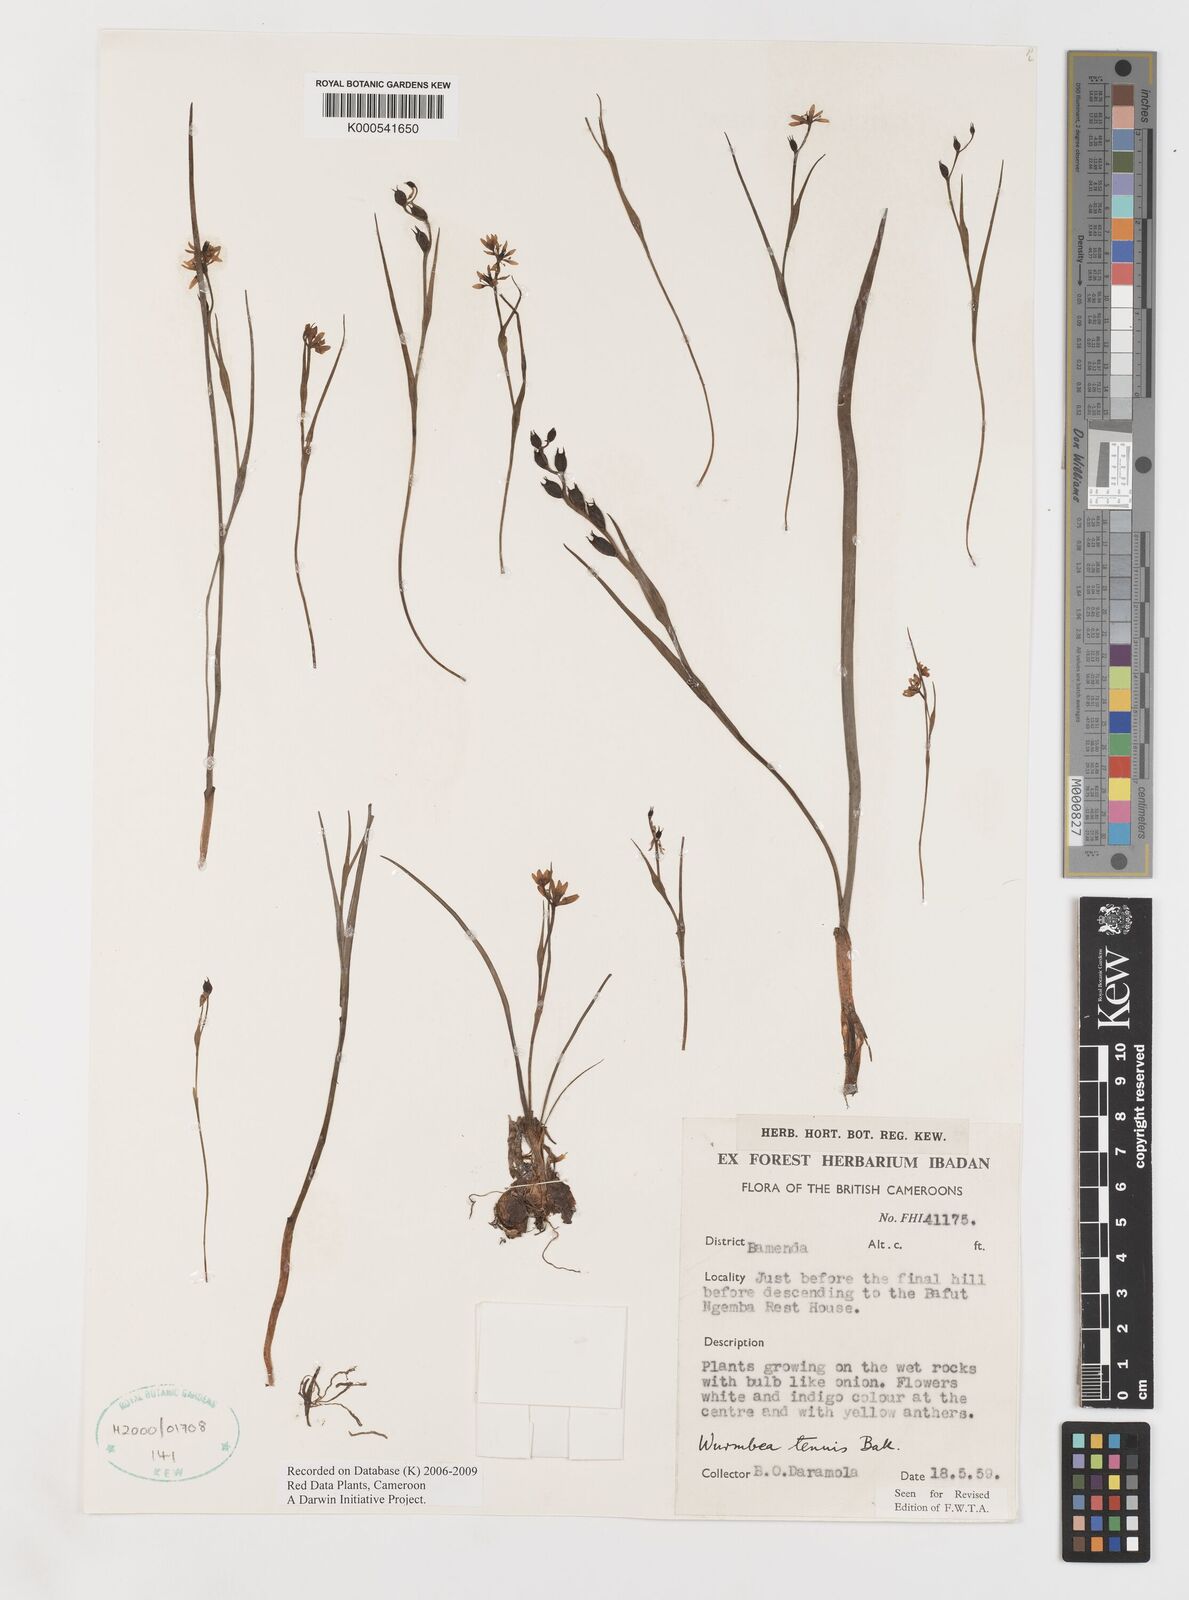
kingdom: Plantae
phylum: Tracheophyta
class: Liliopsida
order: Liliales
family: Colchicaceae
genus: Wurmbea
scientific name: Wurmbea tenuis
